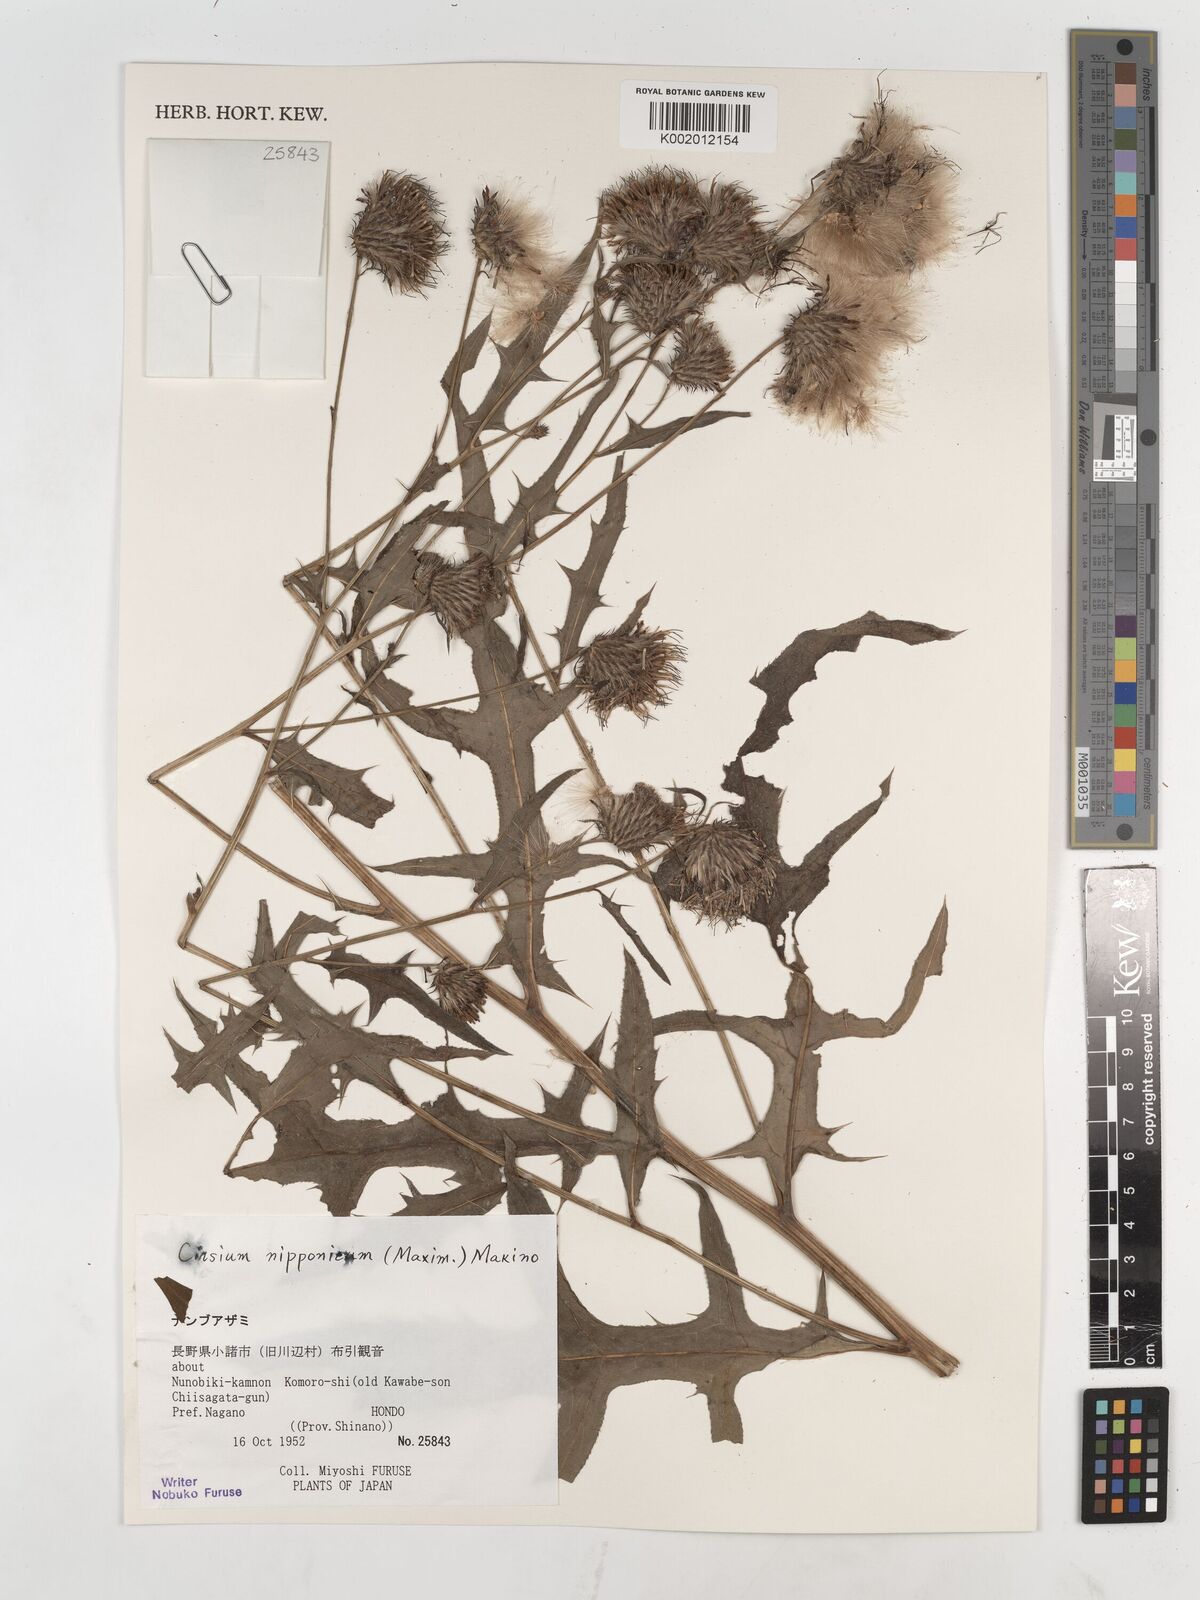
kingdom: Plantae
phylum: Tracheophyta
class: Magnoliopsida
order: Asterales
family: Asteraceae
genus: Cirsium
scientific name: Cirsium nippoense
